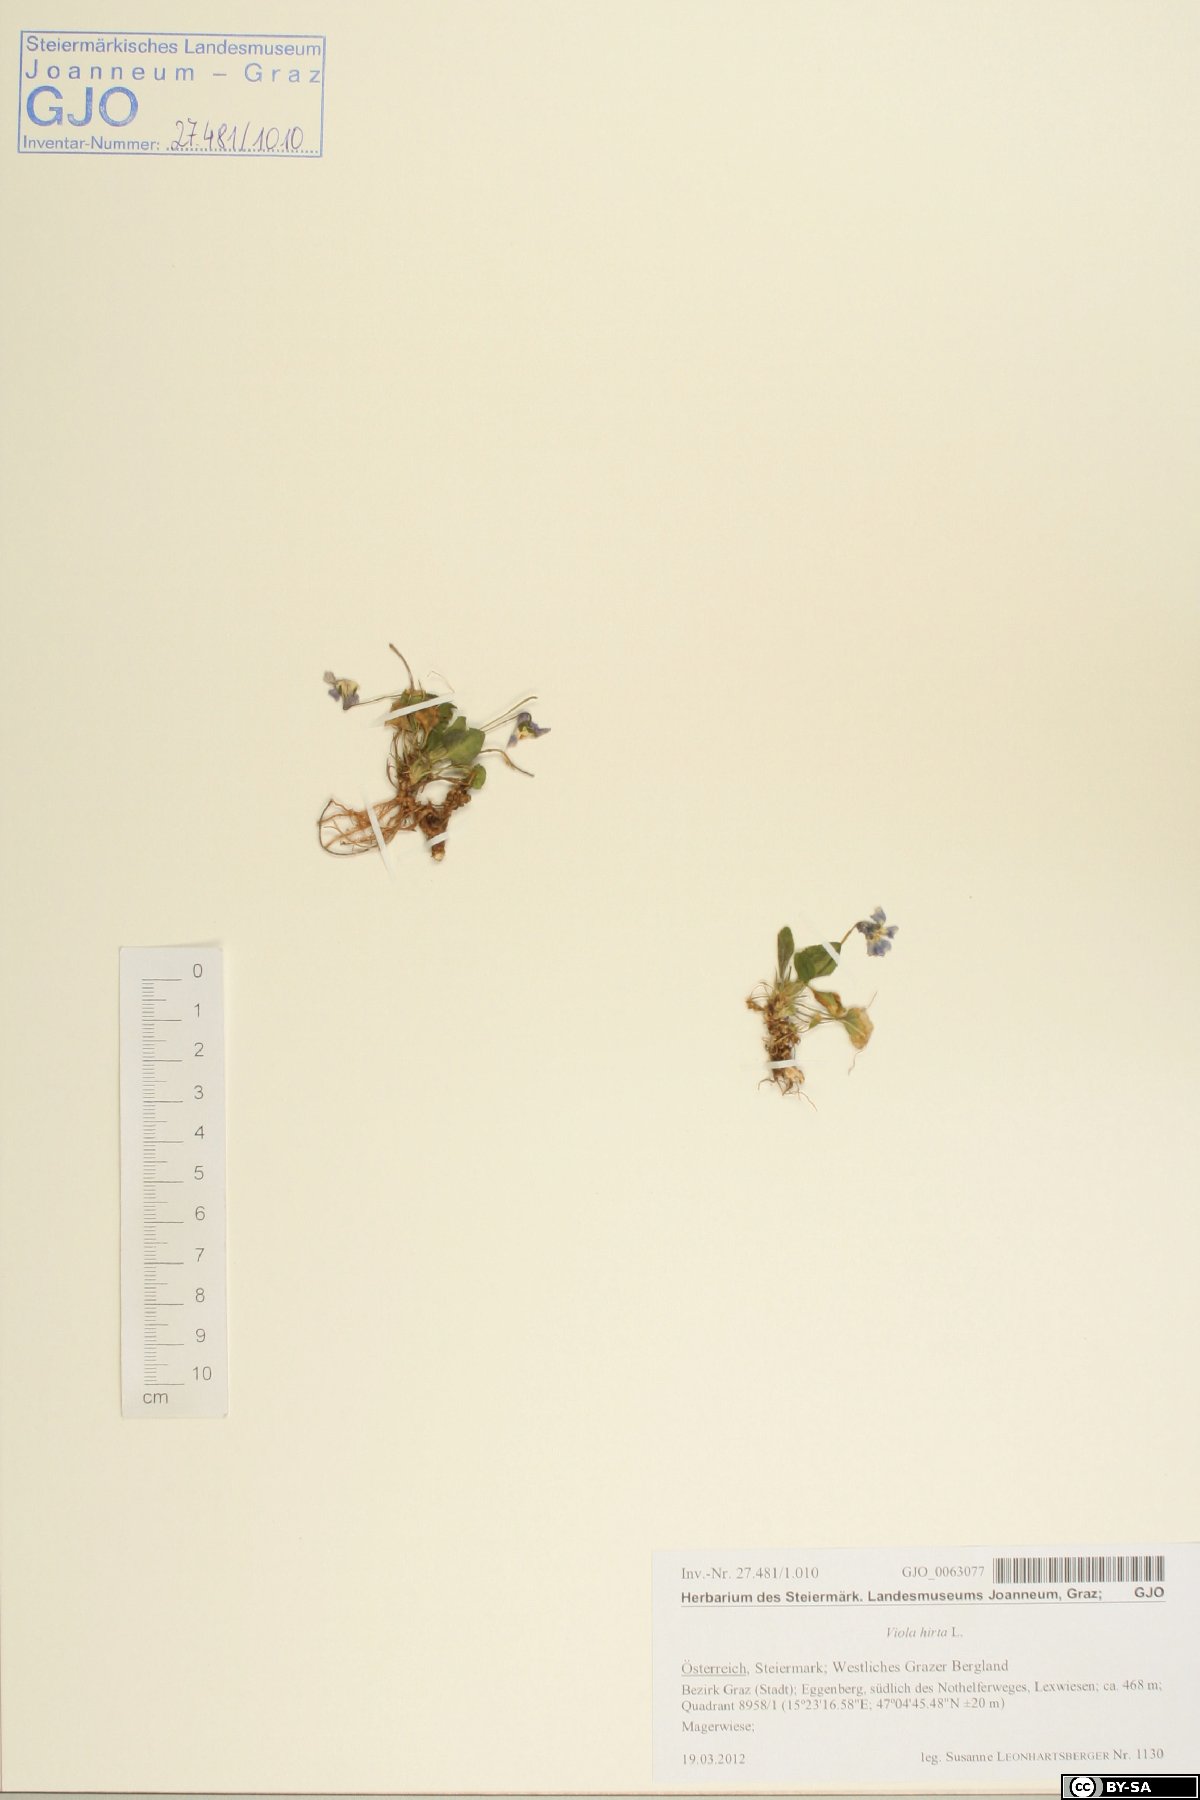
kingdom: Plantae
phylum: Tracheophyta
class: Magnoliopsida
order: Malpighiales
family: Violaceae
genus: Viola
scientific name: Viola hirta
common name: Hairy violet
